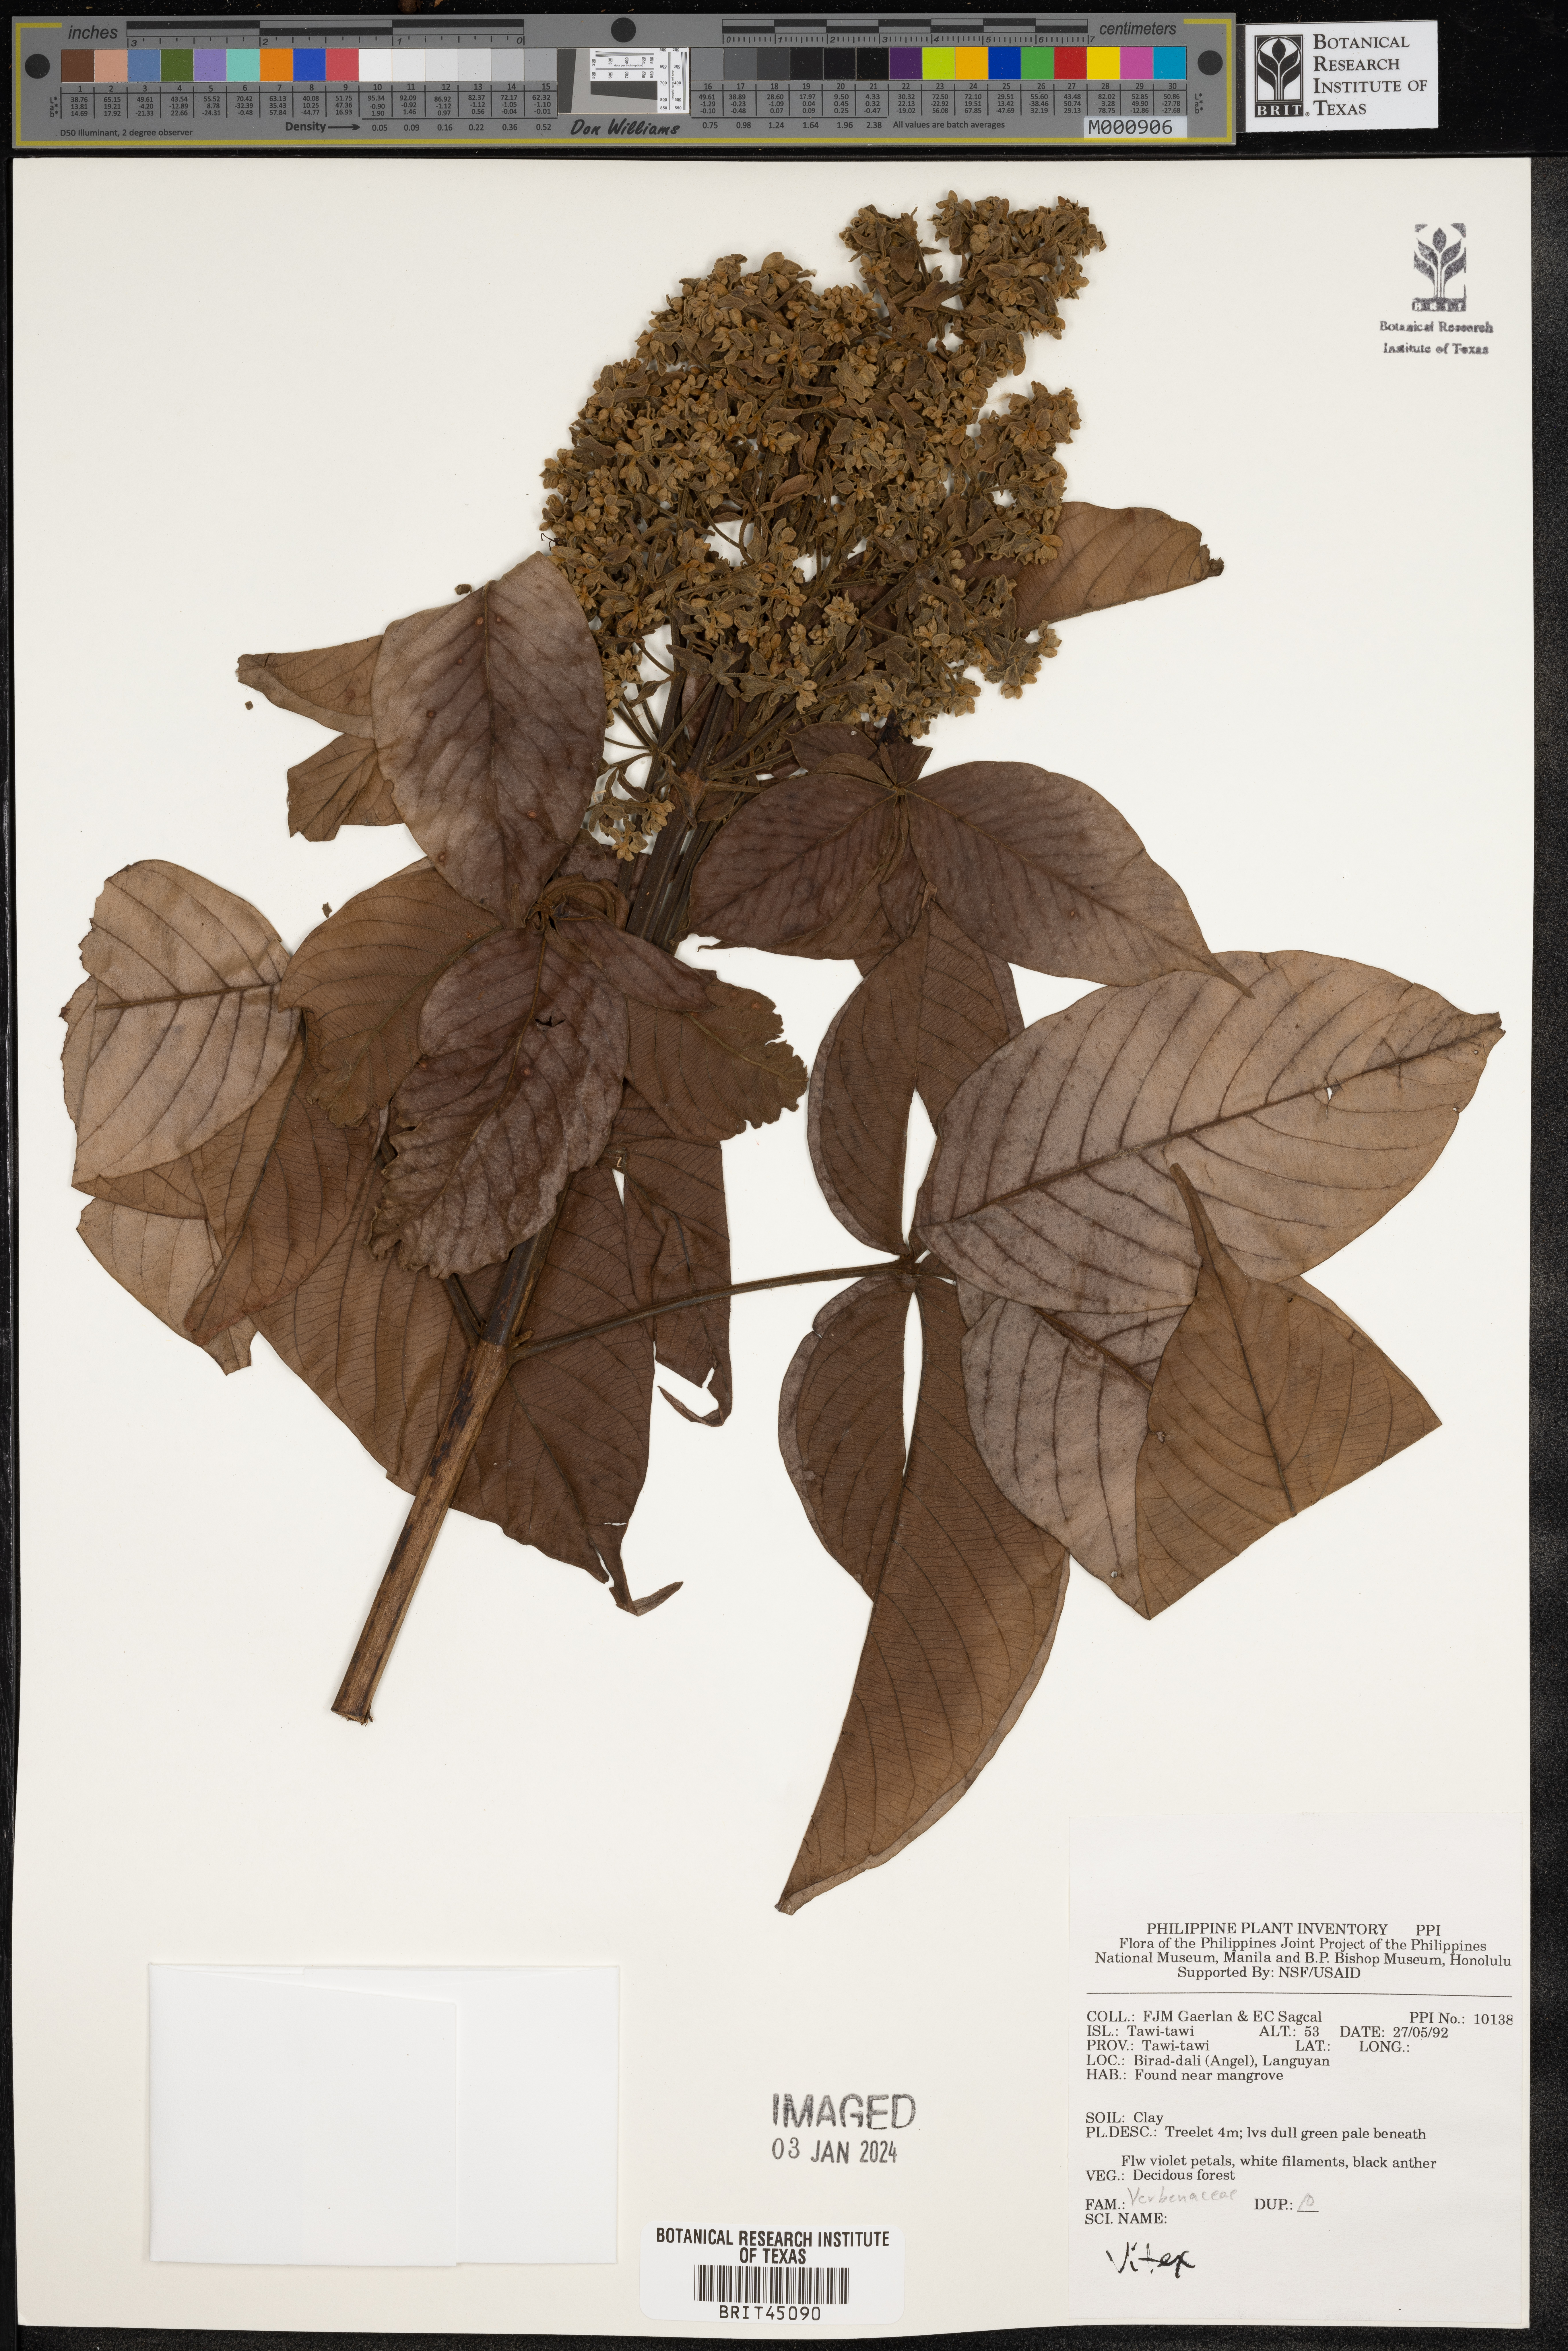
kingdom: Plantae
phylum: Tracheophyta
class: Magnoliopsida
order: Lamiales
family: Lamiaceae
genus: Vitex
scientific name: Vitex
